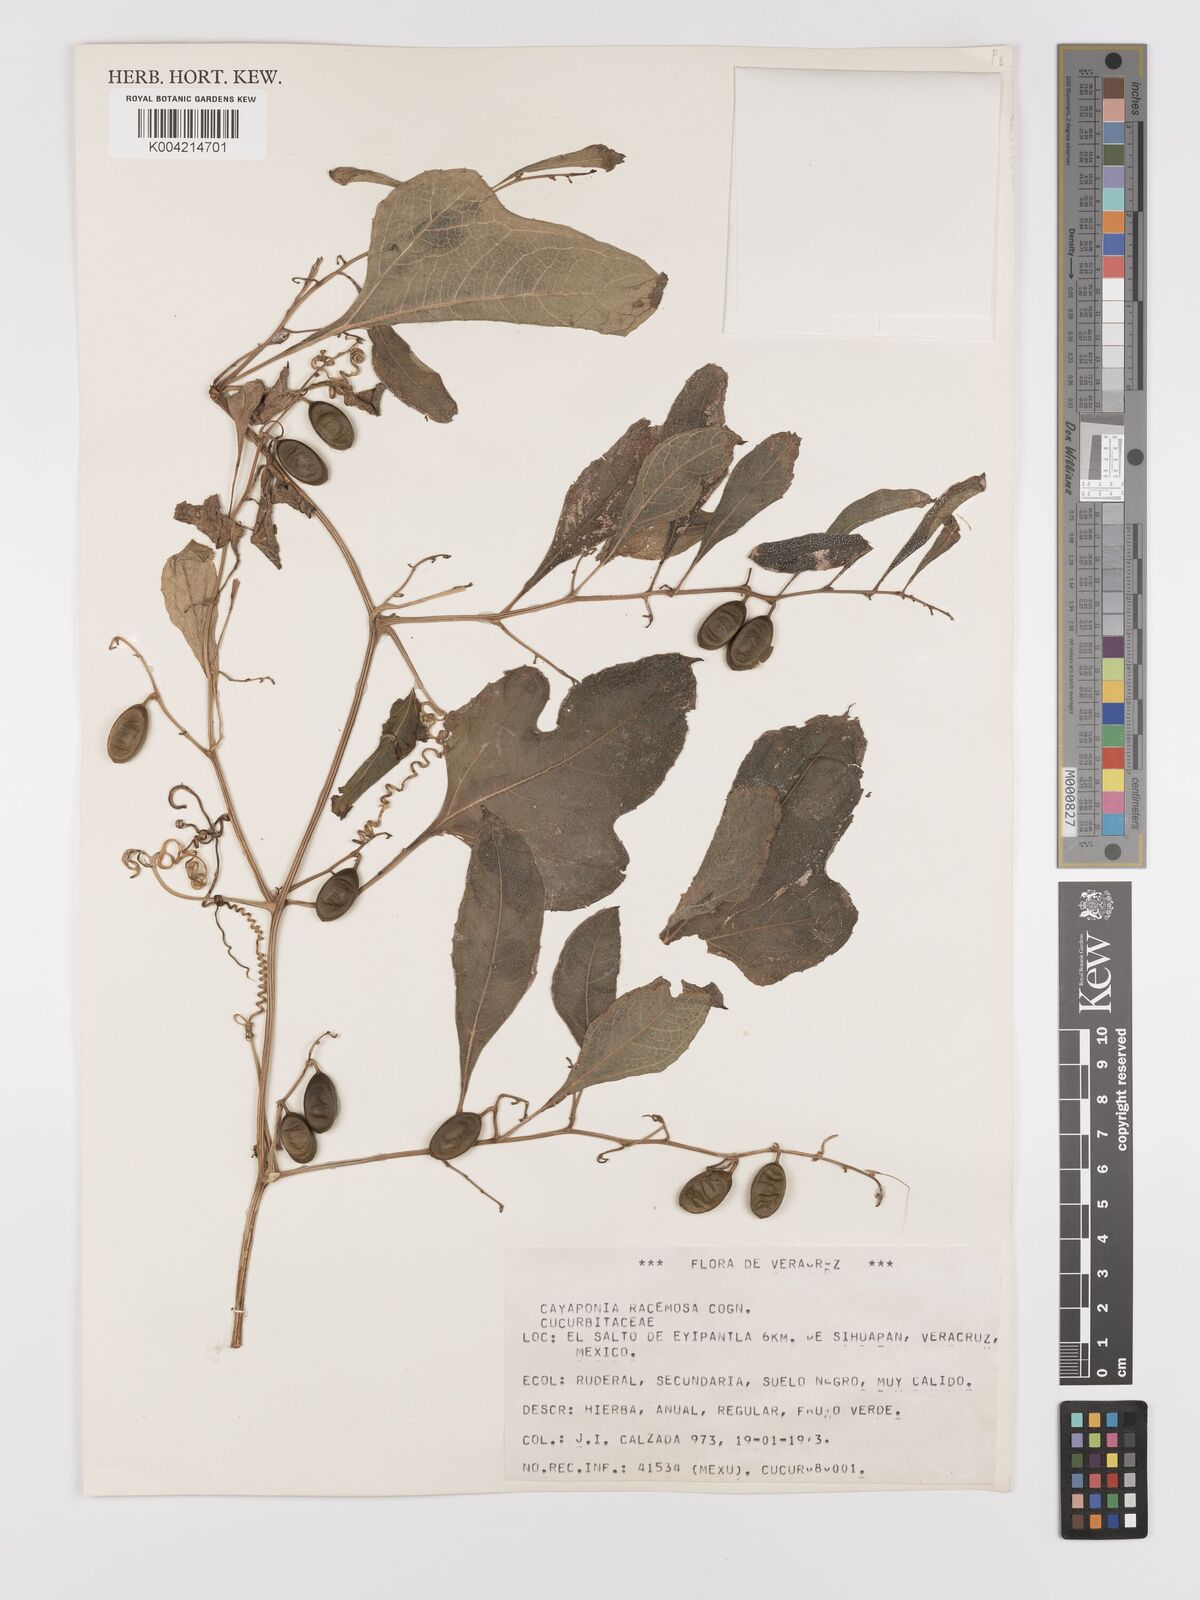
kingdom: Plantae
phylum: Tracheophyta
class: Magnoliopsida
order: Cucurbitales
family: Cucurbitaceae
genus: Cayaponia
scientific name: Cayaponia racemosa
